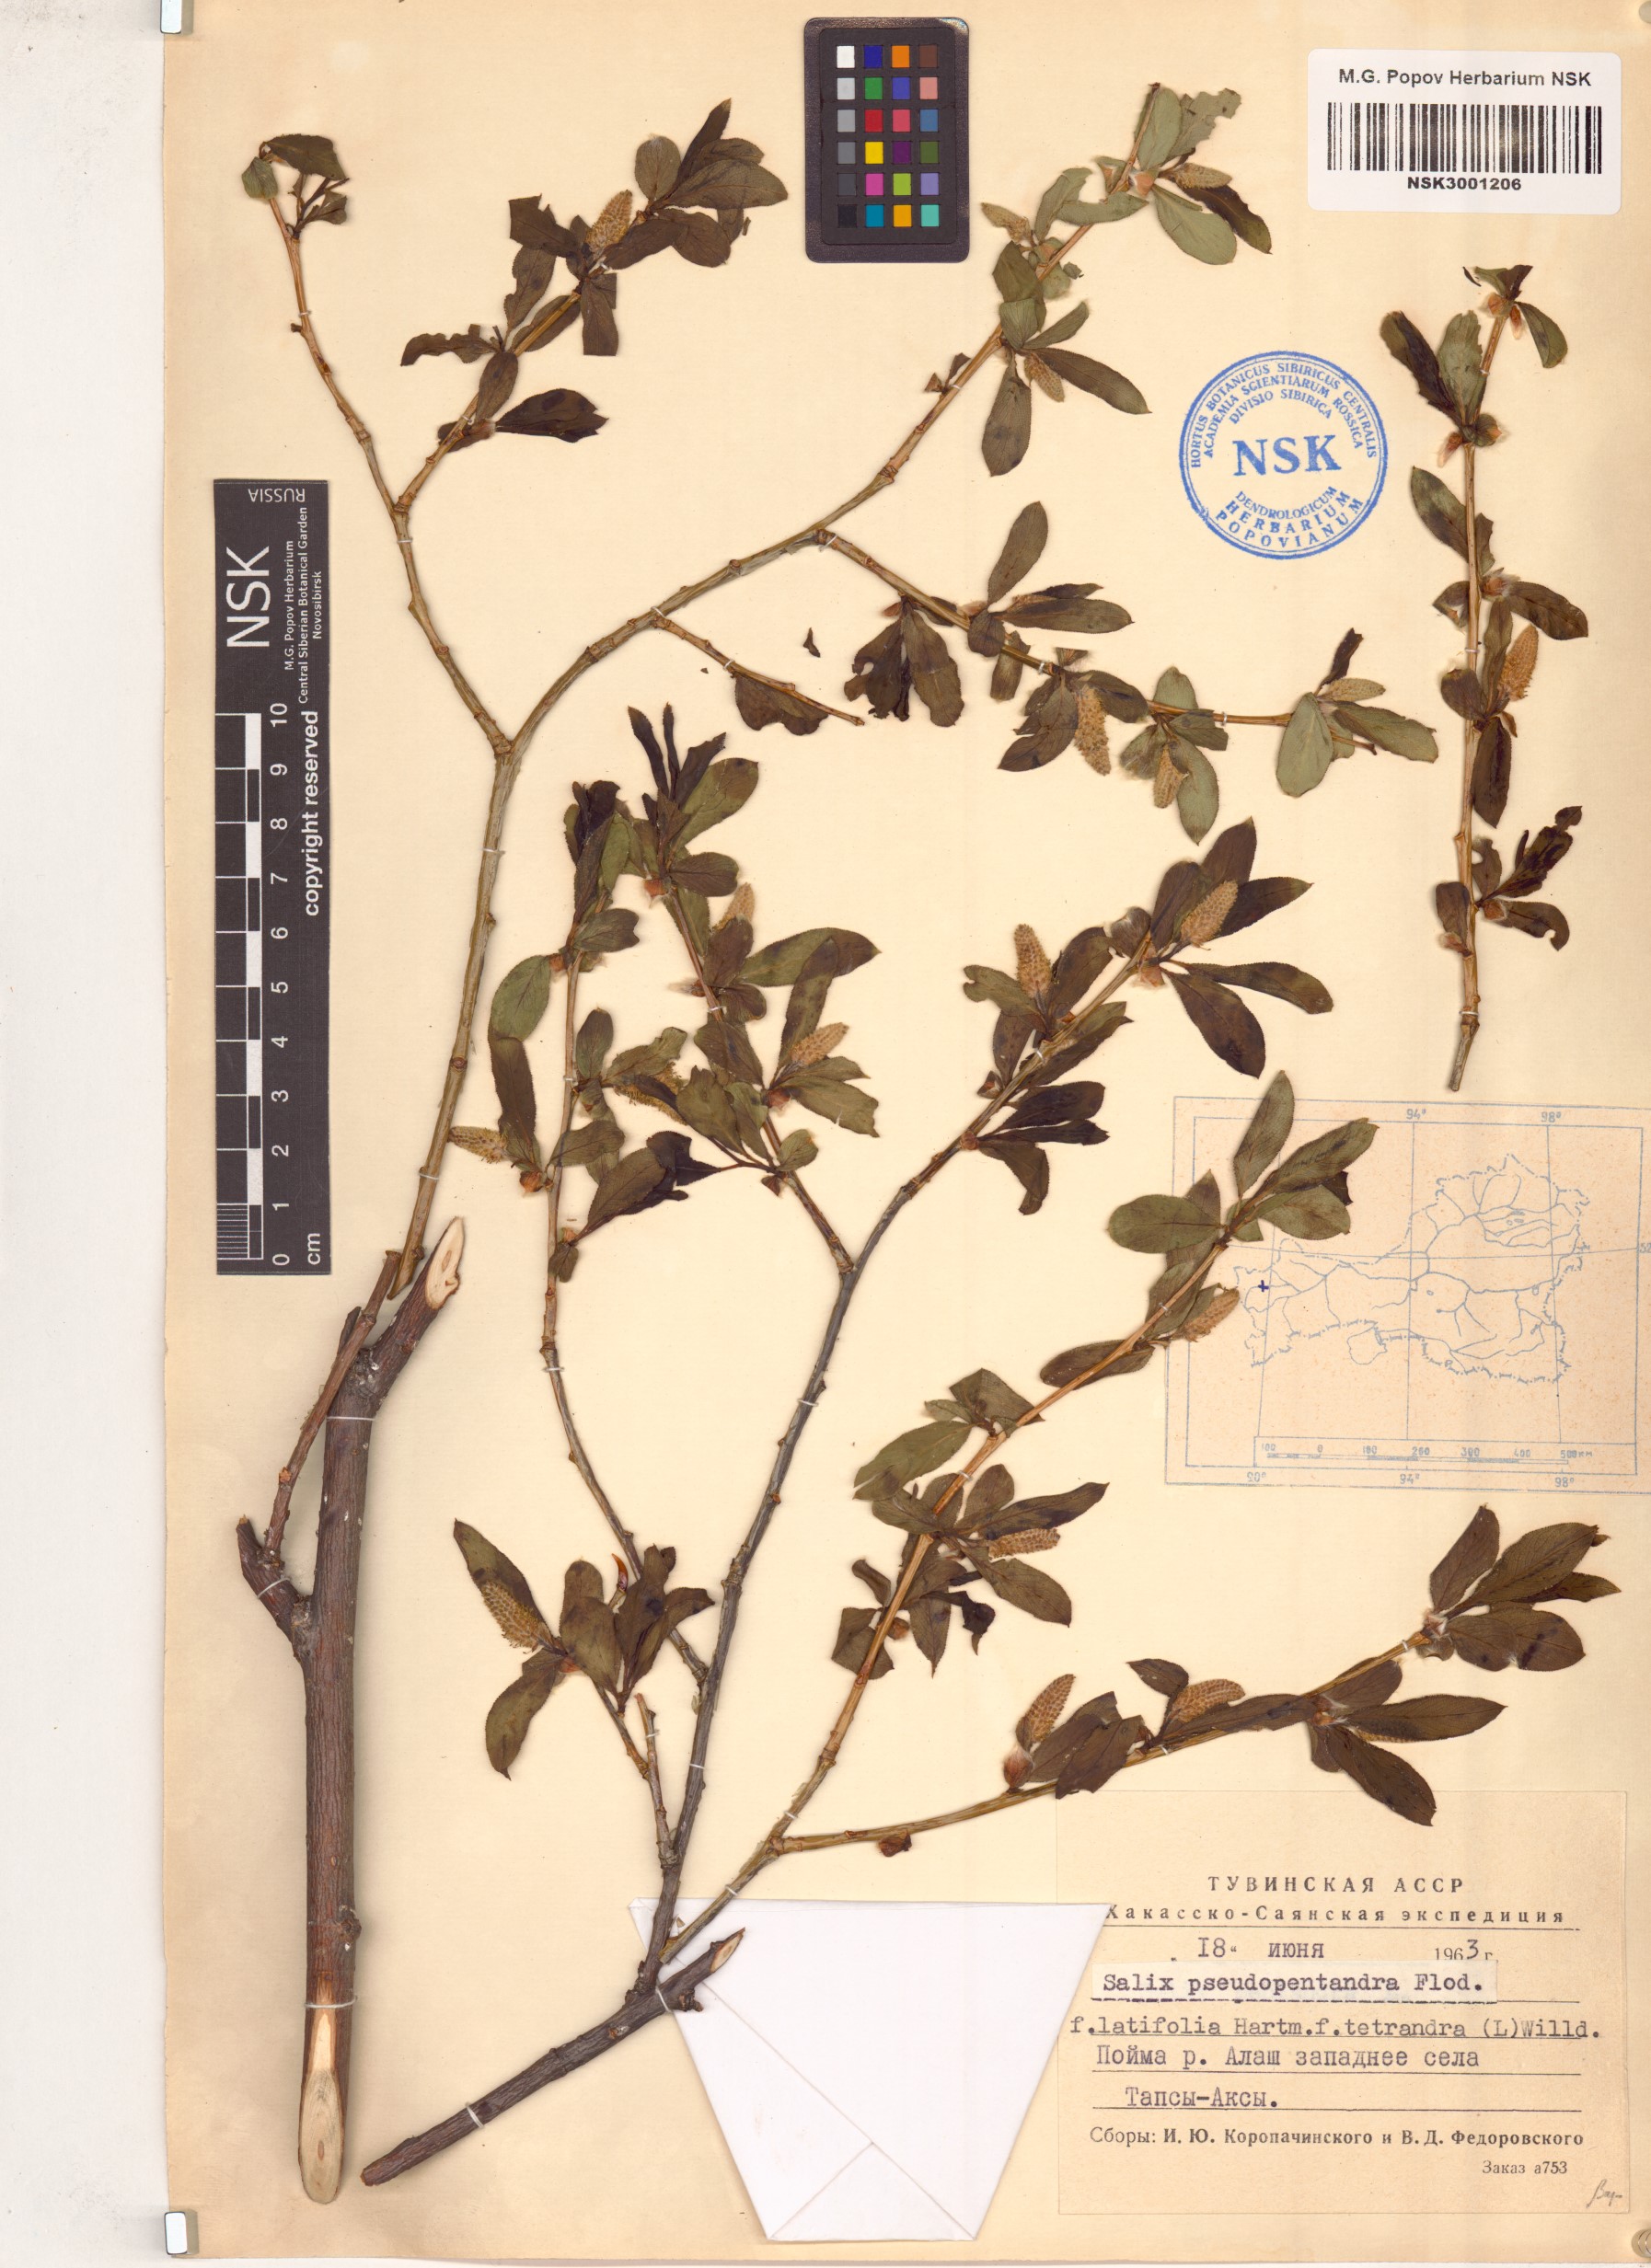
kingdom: Plantae
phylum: Tracheophyta
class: Magnoliopsida
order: Malpighiales
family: Salicaceae
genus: Salix
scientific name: Salix pseudopentandra
